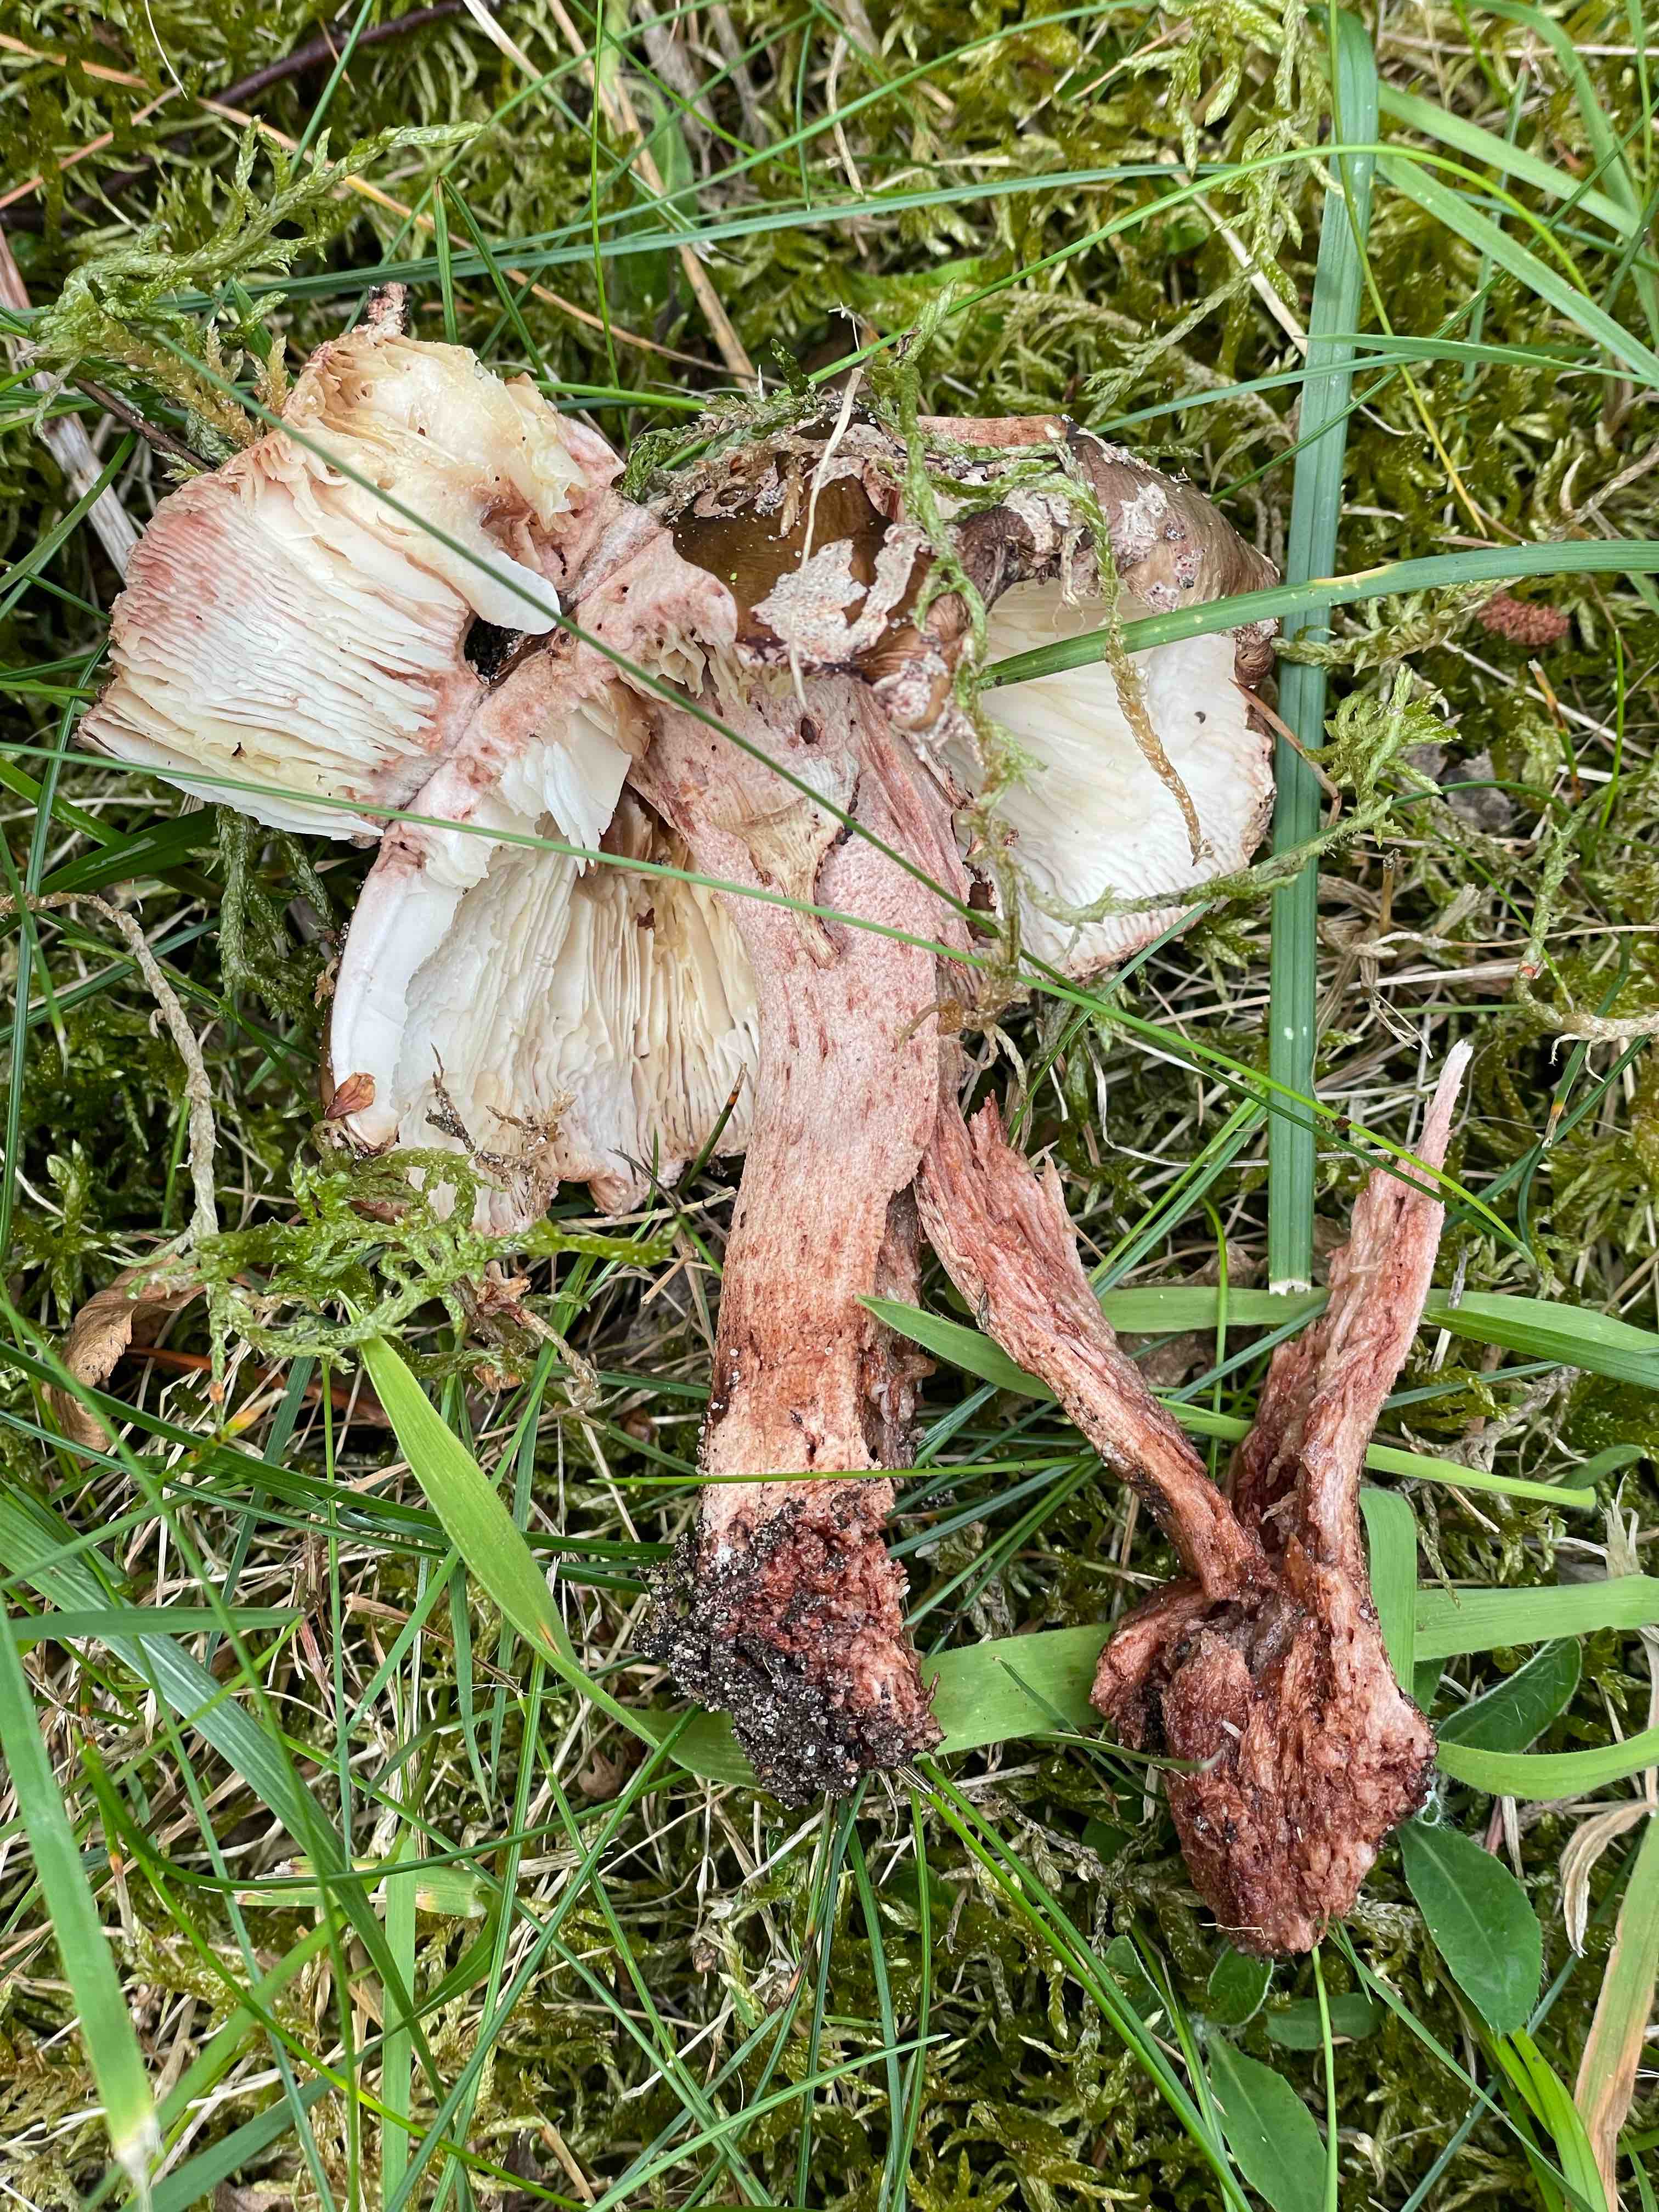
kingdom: Fungi
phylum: Basidiomycota
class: Agaricomycetes
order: Agaricales
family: Amanitaceae
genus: Amanita
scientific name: Amanita rubescens
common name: rødmende fluesvamp
